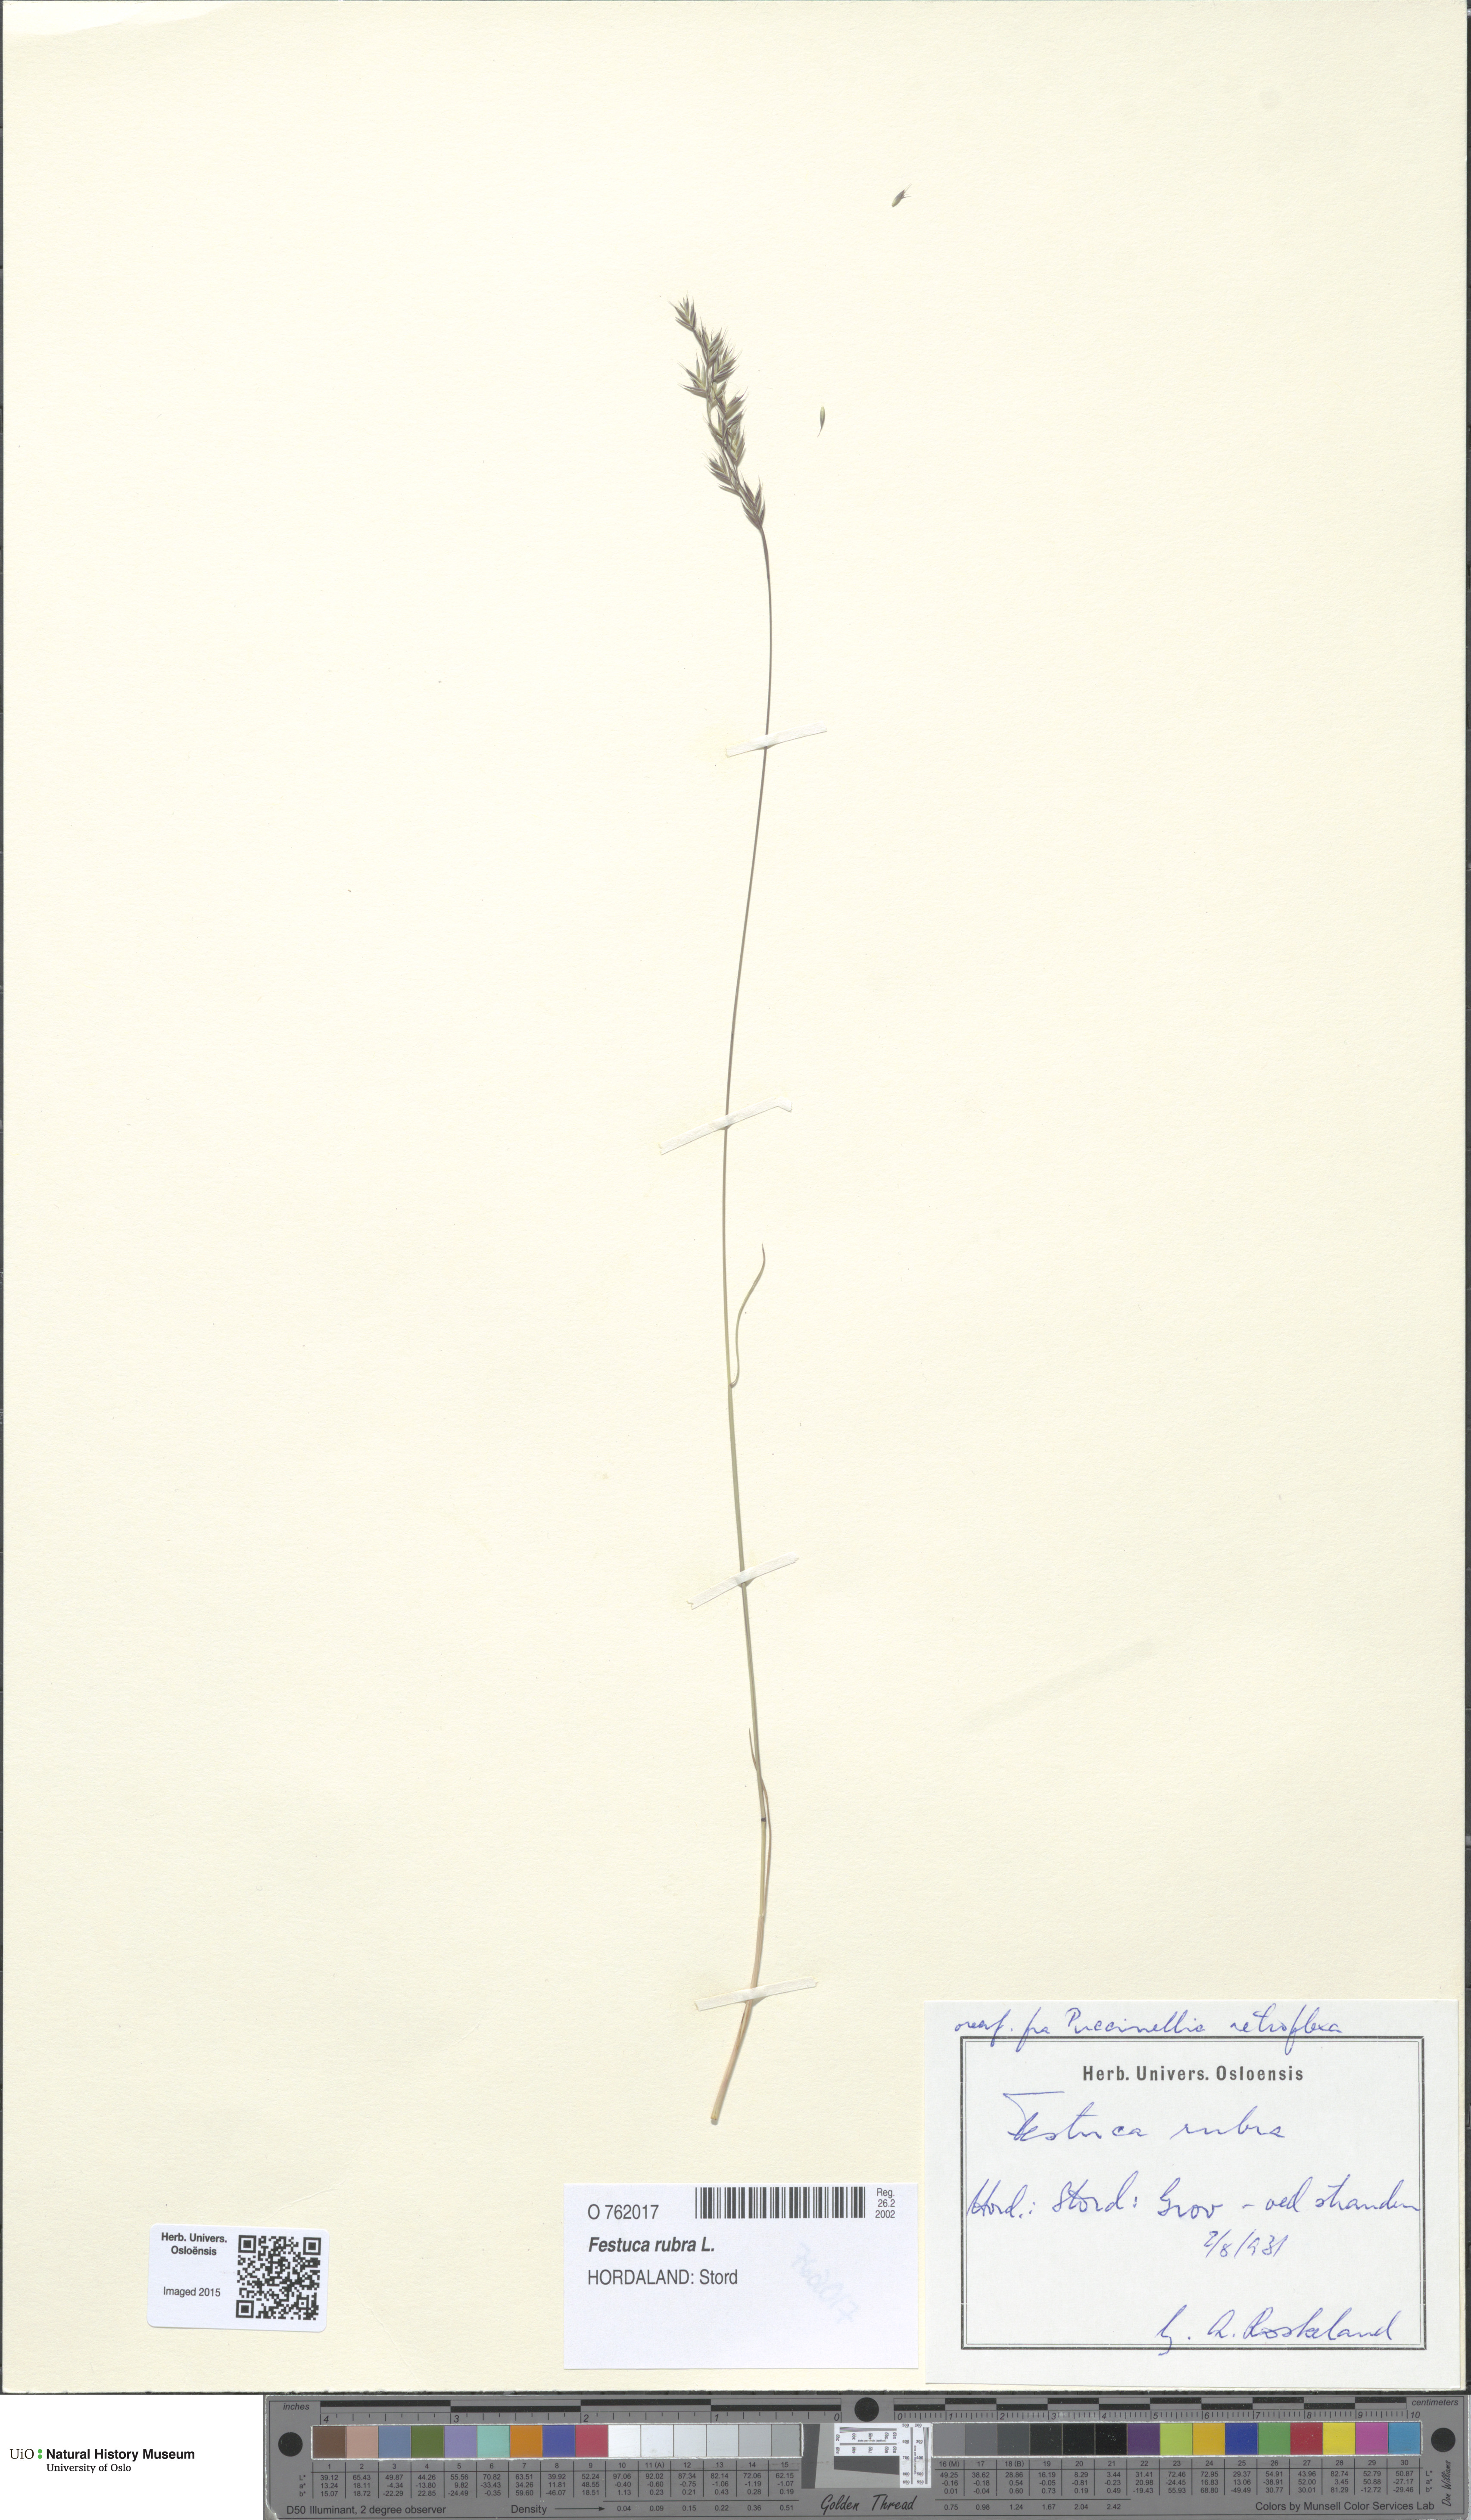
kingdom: Plantae
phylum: Tracheophyta
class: Liliopsida
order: Poales
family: Poaceae
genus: Festuca
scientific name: Festuca rubra
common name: Red fescue
